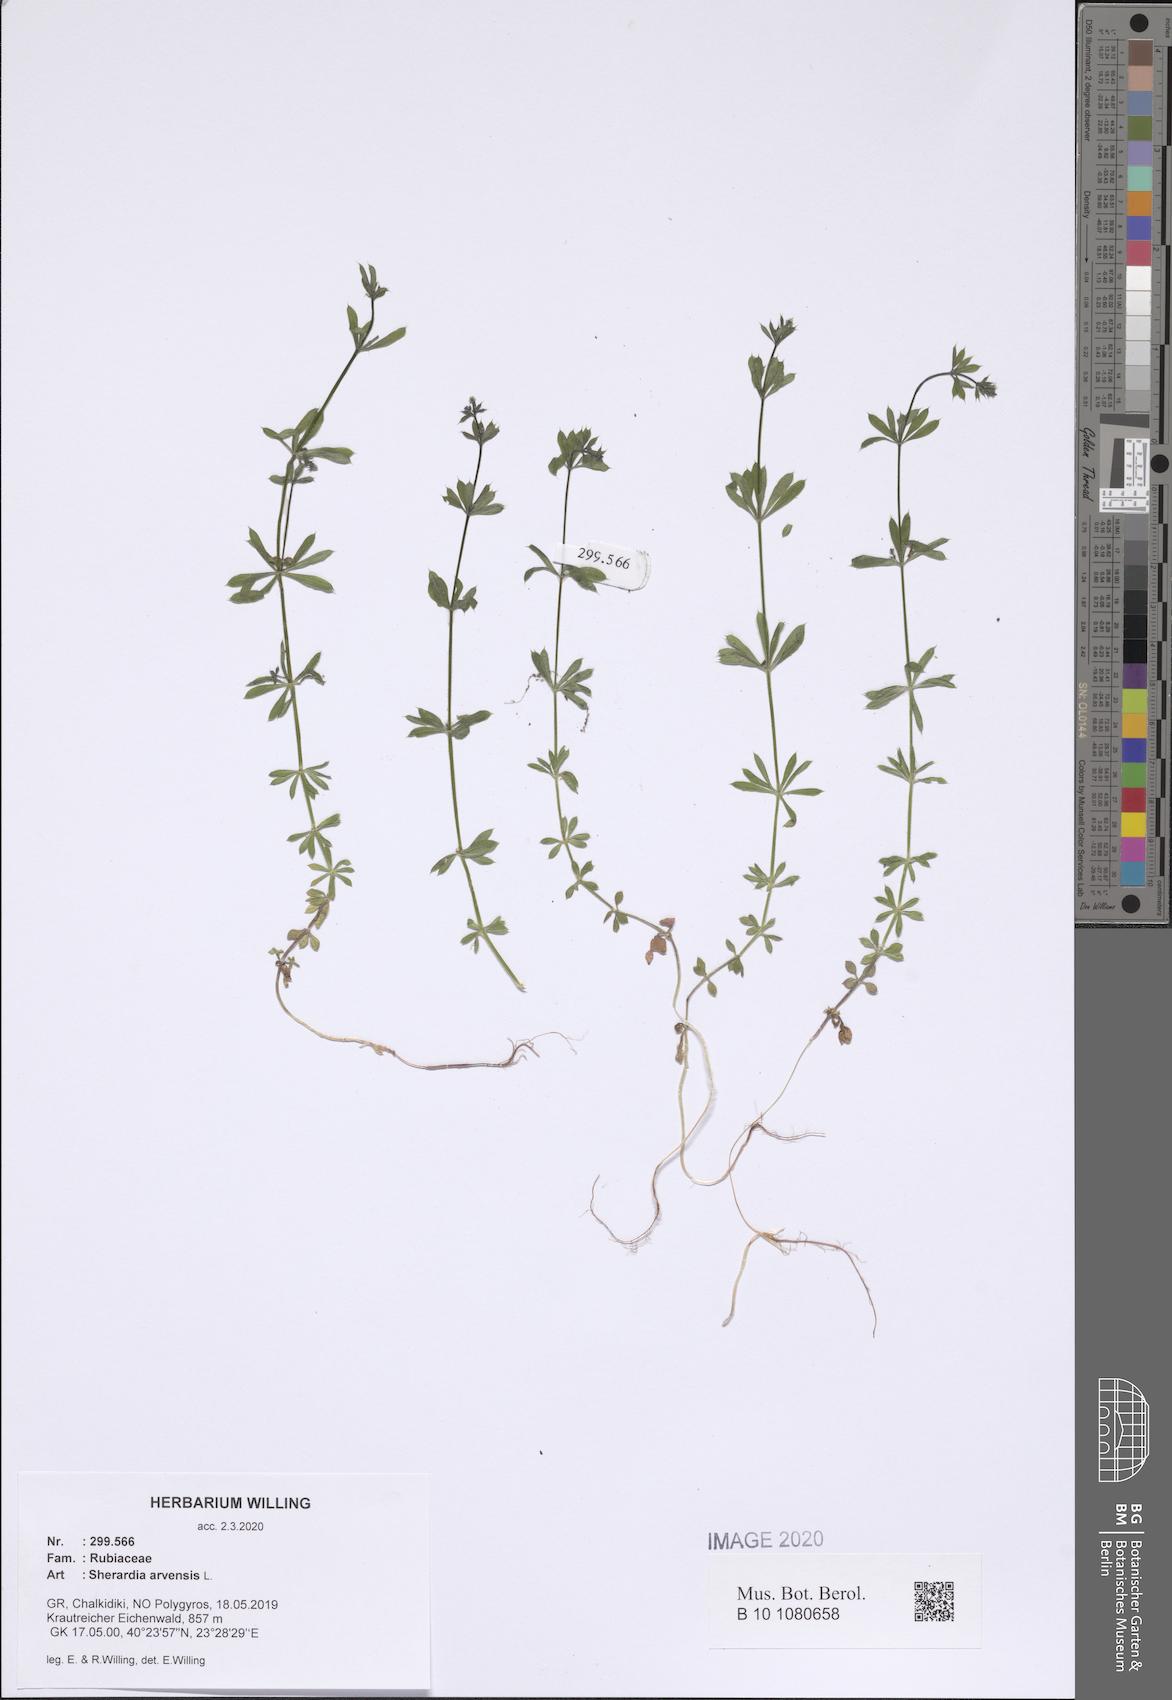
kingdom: Plantae
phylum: Tracheophyta
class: Magnoliopsida
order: Gentianales
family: Rubiaceae
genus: Sherardia
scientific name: Sherardia arvensis
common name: Field madder
